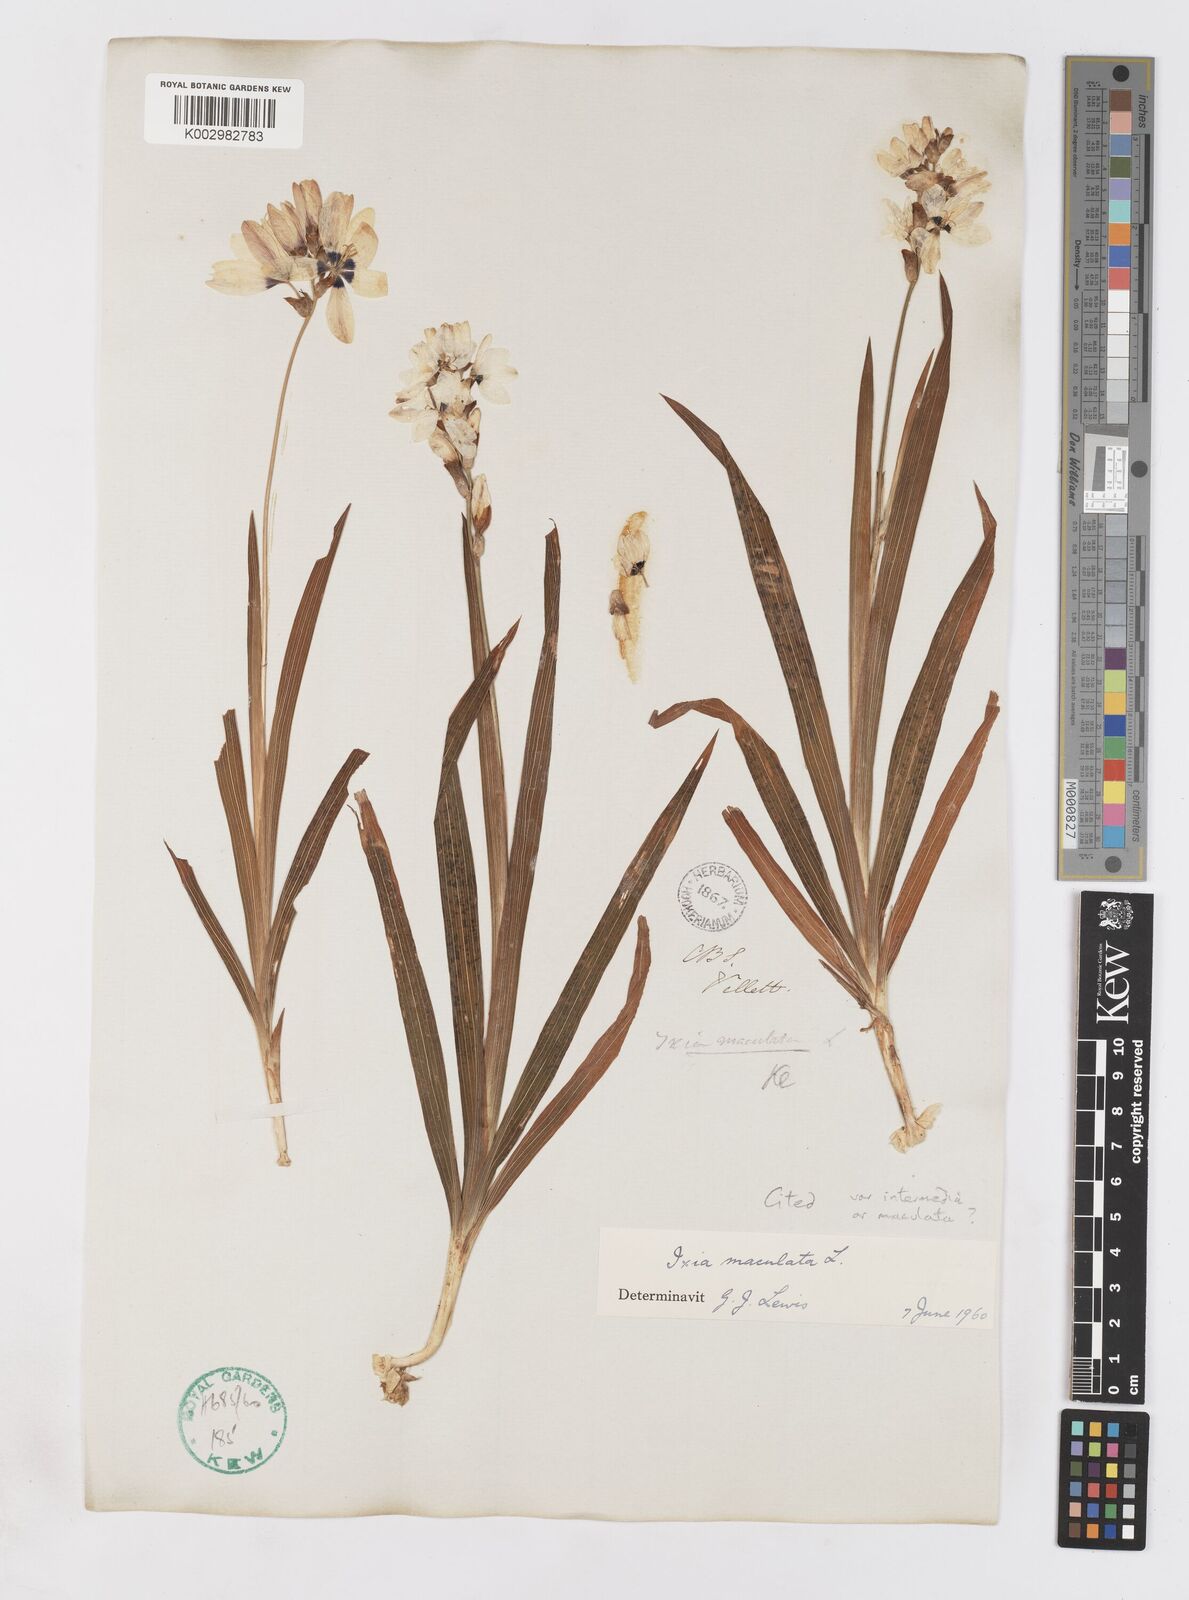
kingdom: Plantae
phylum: Tracheophyta
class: Liliopsida
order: Asparagales
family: Iridaceae
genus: Ixia
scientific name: Ixia maculata
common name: Spotted african cornlily
